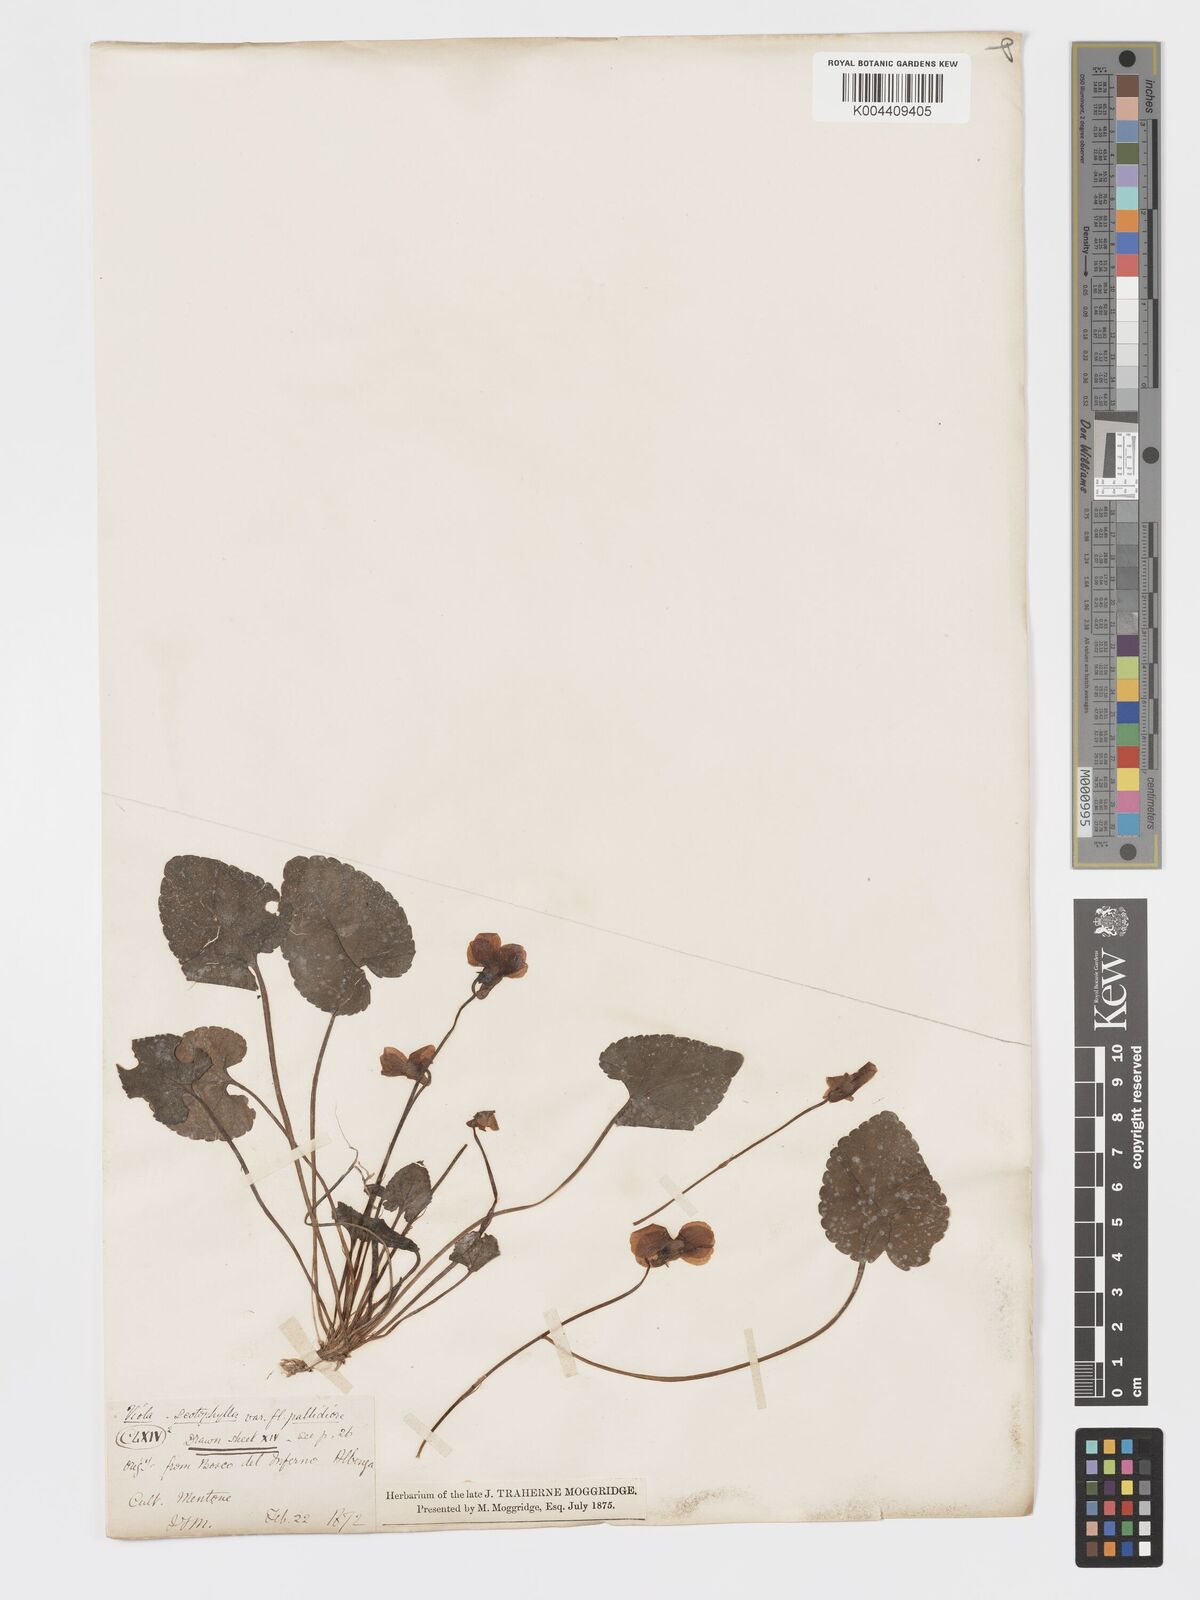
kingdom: Plantae
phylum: Tracheophyta
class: Magnoliopsida
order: Malpighiales
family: Violaceae
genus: Viola
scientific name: Viola alba
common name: White violet
